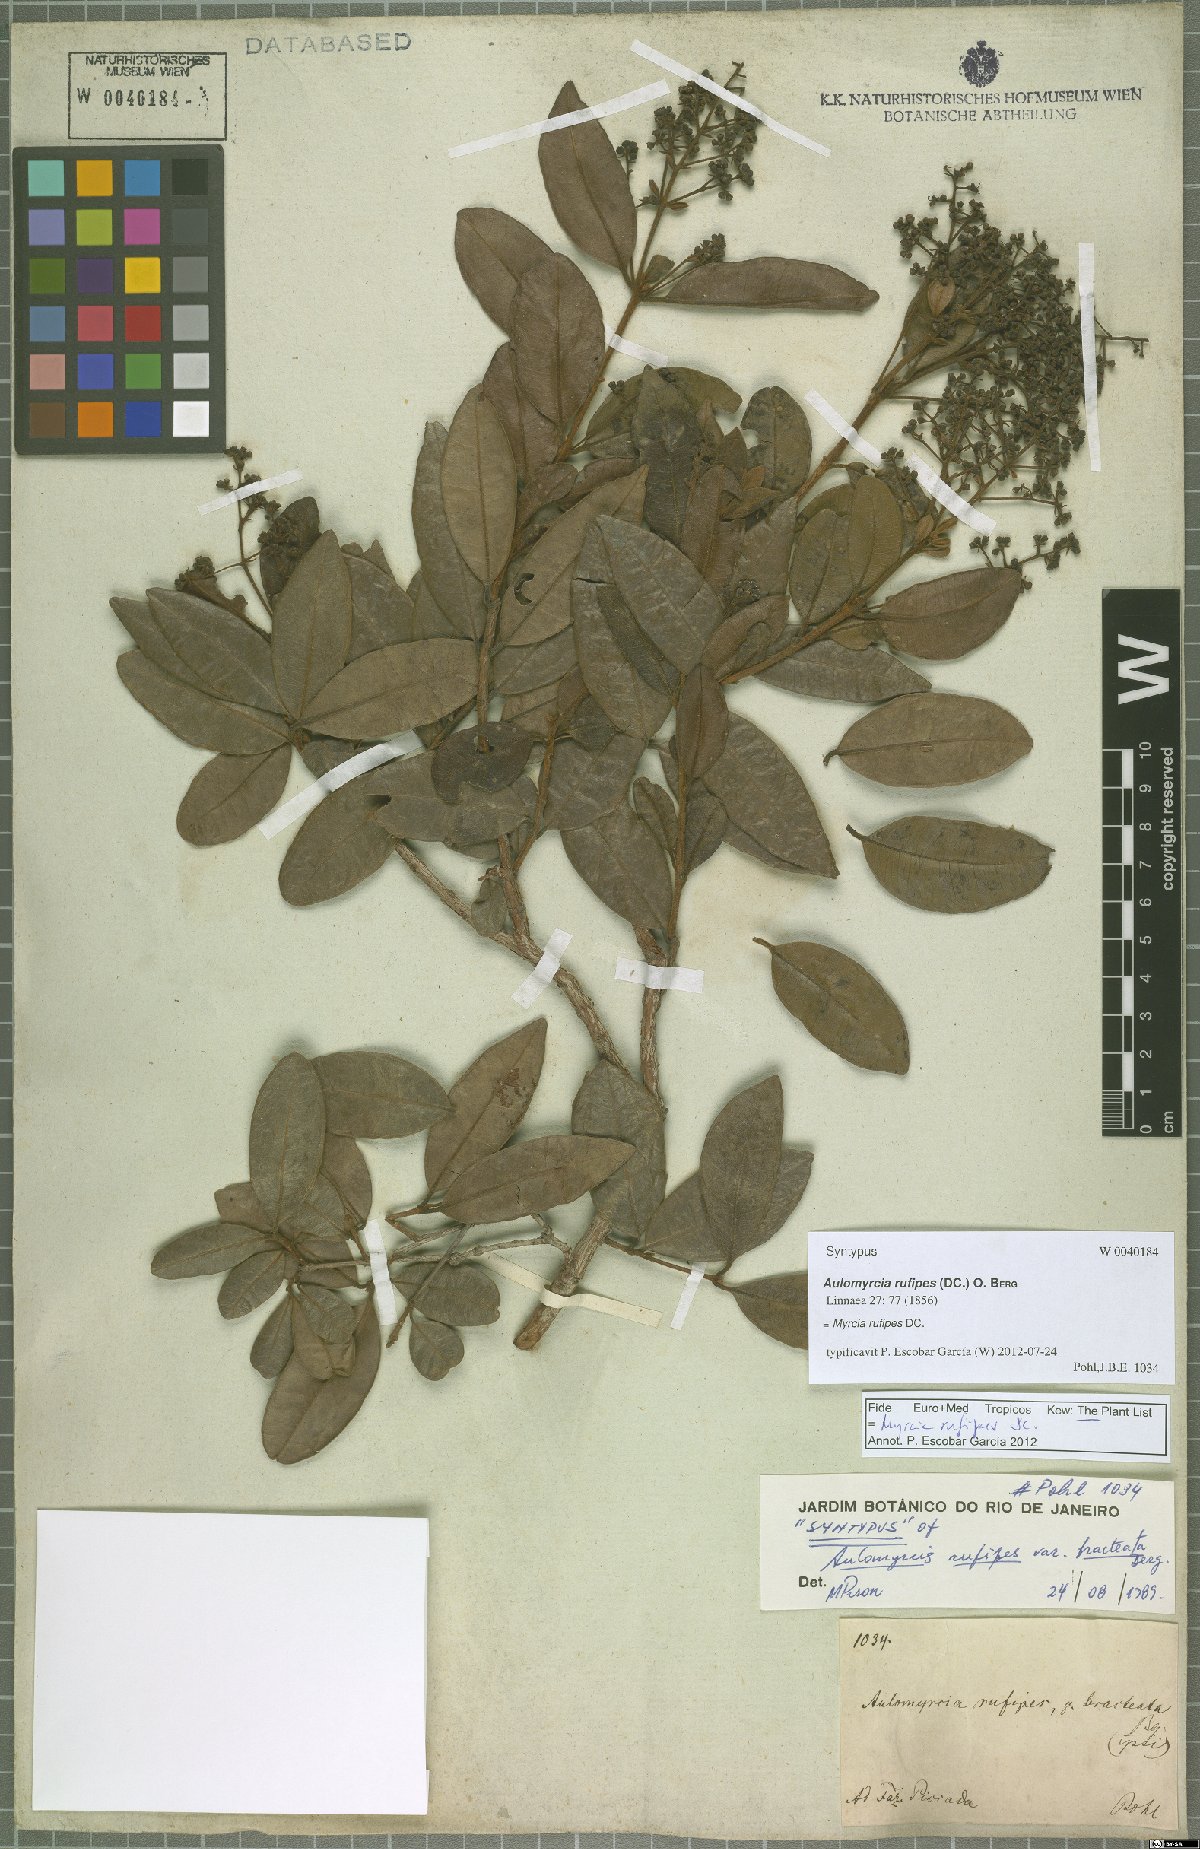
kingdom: Plantae
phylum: Tracheophyta
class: Magnoliopsida
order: Myrtales
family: Myrtaceae
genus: Myrcia
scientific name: Myrcia rufipes
